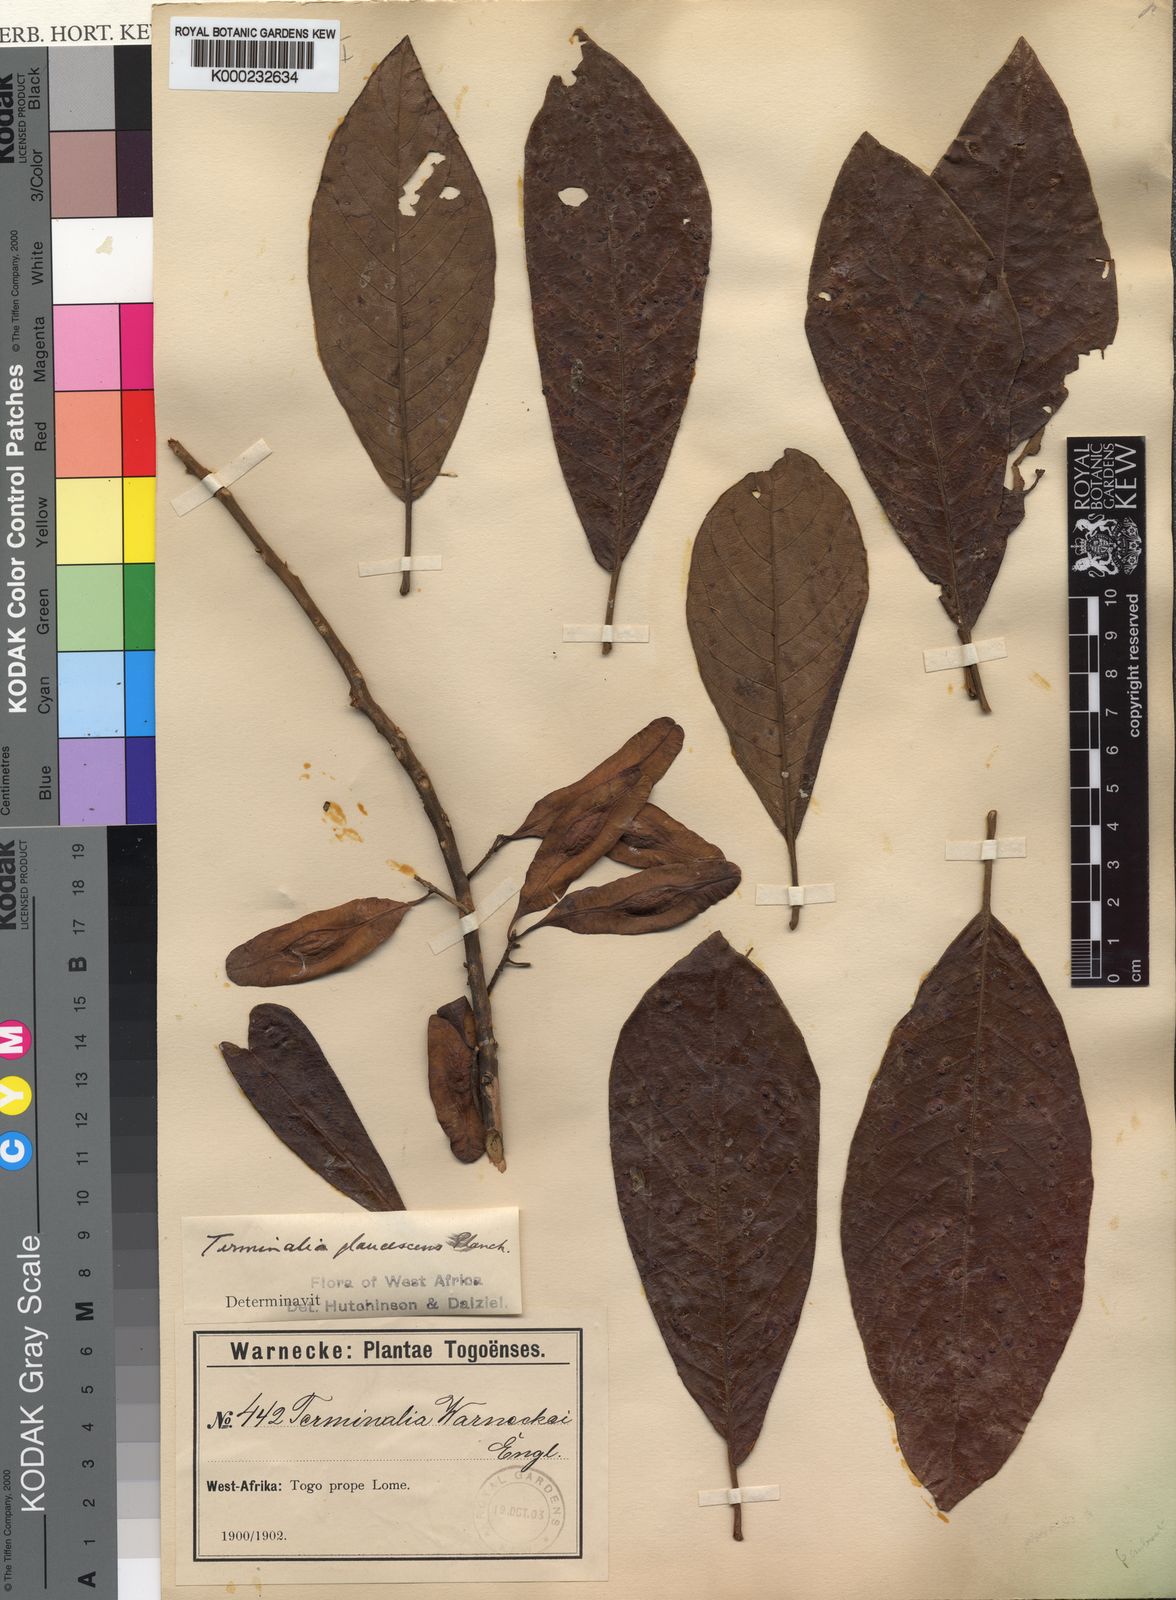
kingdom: Plantae
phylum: Tracheophyta
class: Magnoliopsida
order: Myrtales
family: Combretaceae
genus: Terminalia
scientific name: Terminalia schimperiana
